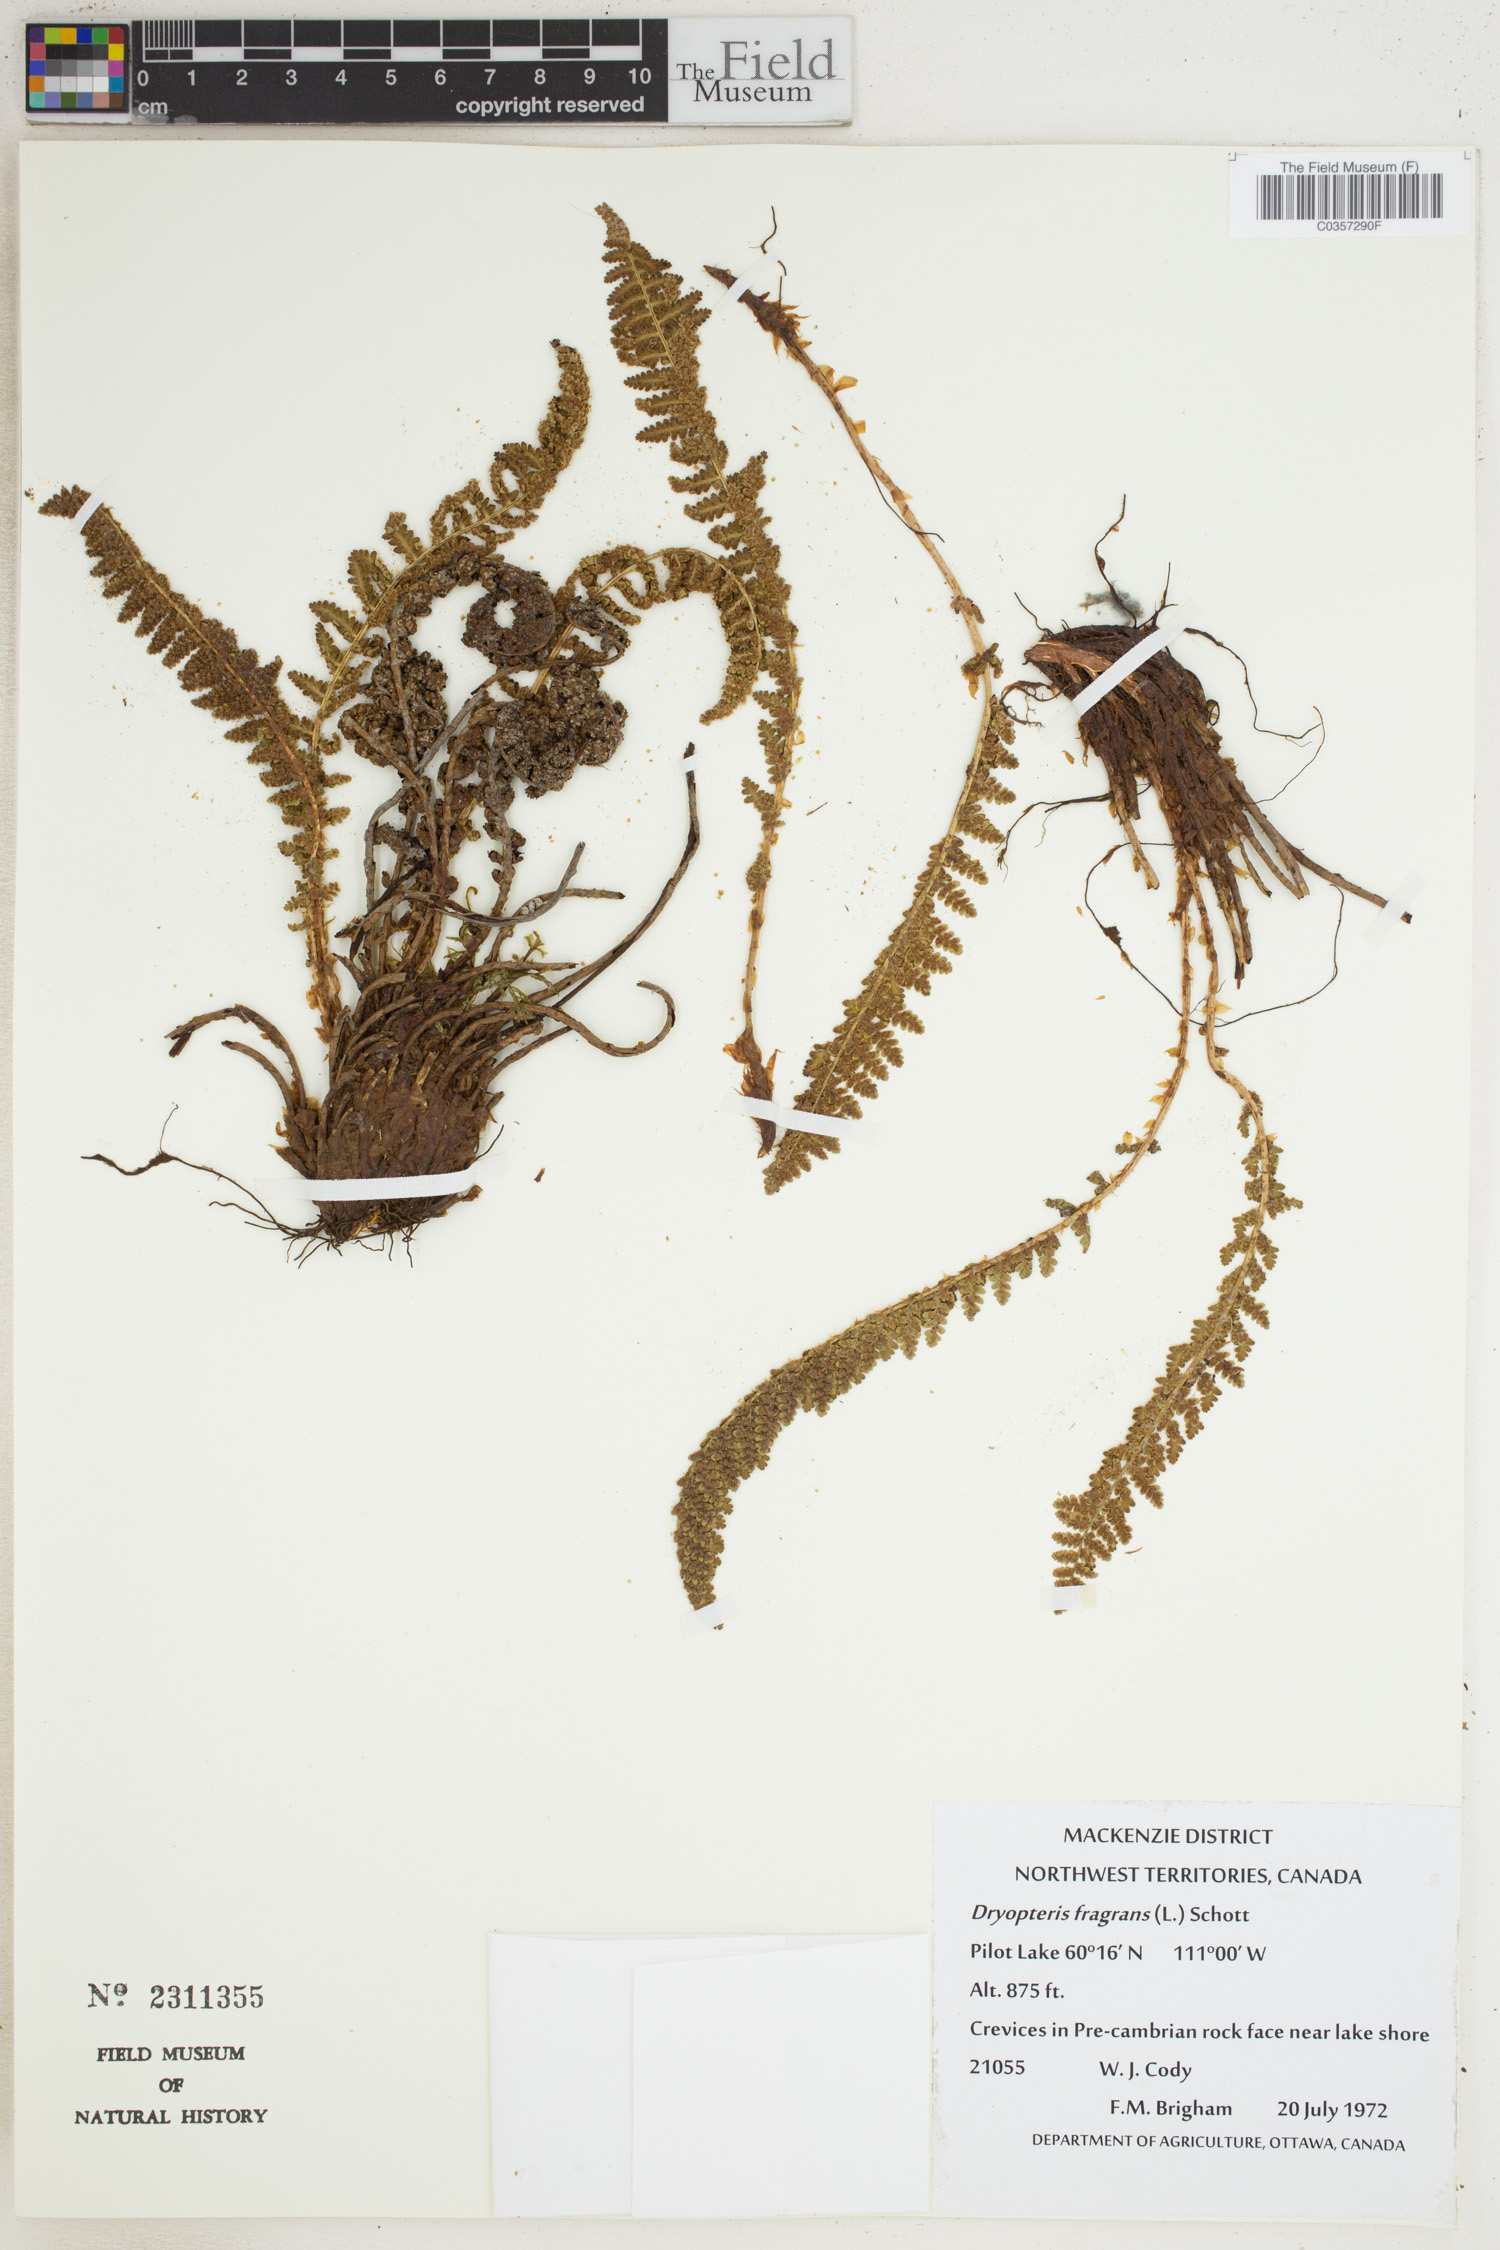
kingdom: Plantae
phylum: Tracheophyta
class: Polypodiopsida
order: Polypodiales
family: Dryopteridaceae
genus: Dryopteris
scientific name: Dryopteris fragrans
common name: Fragrant wood fern
